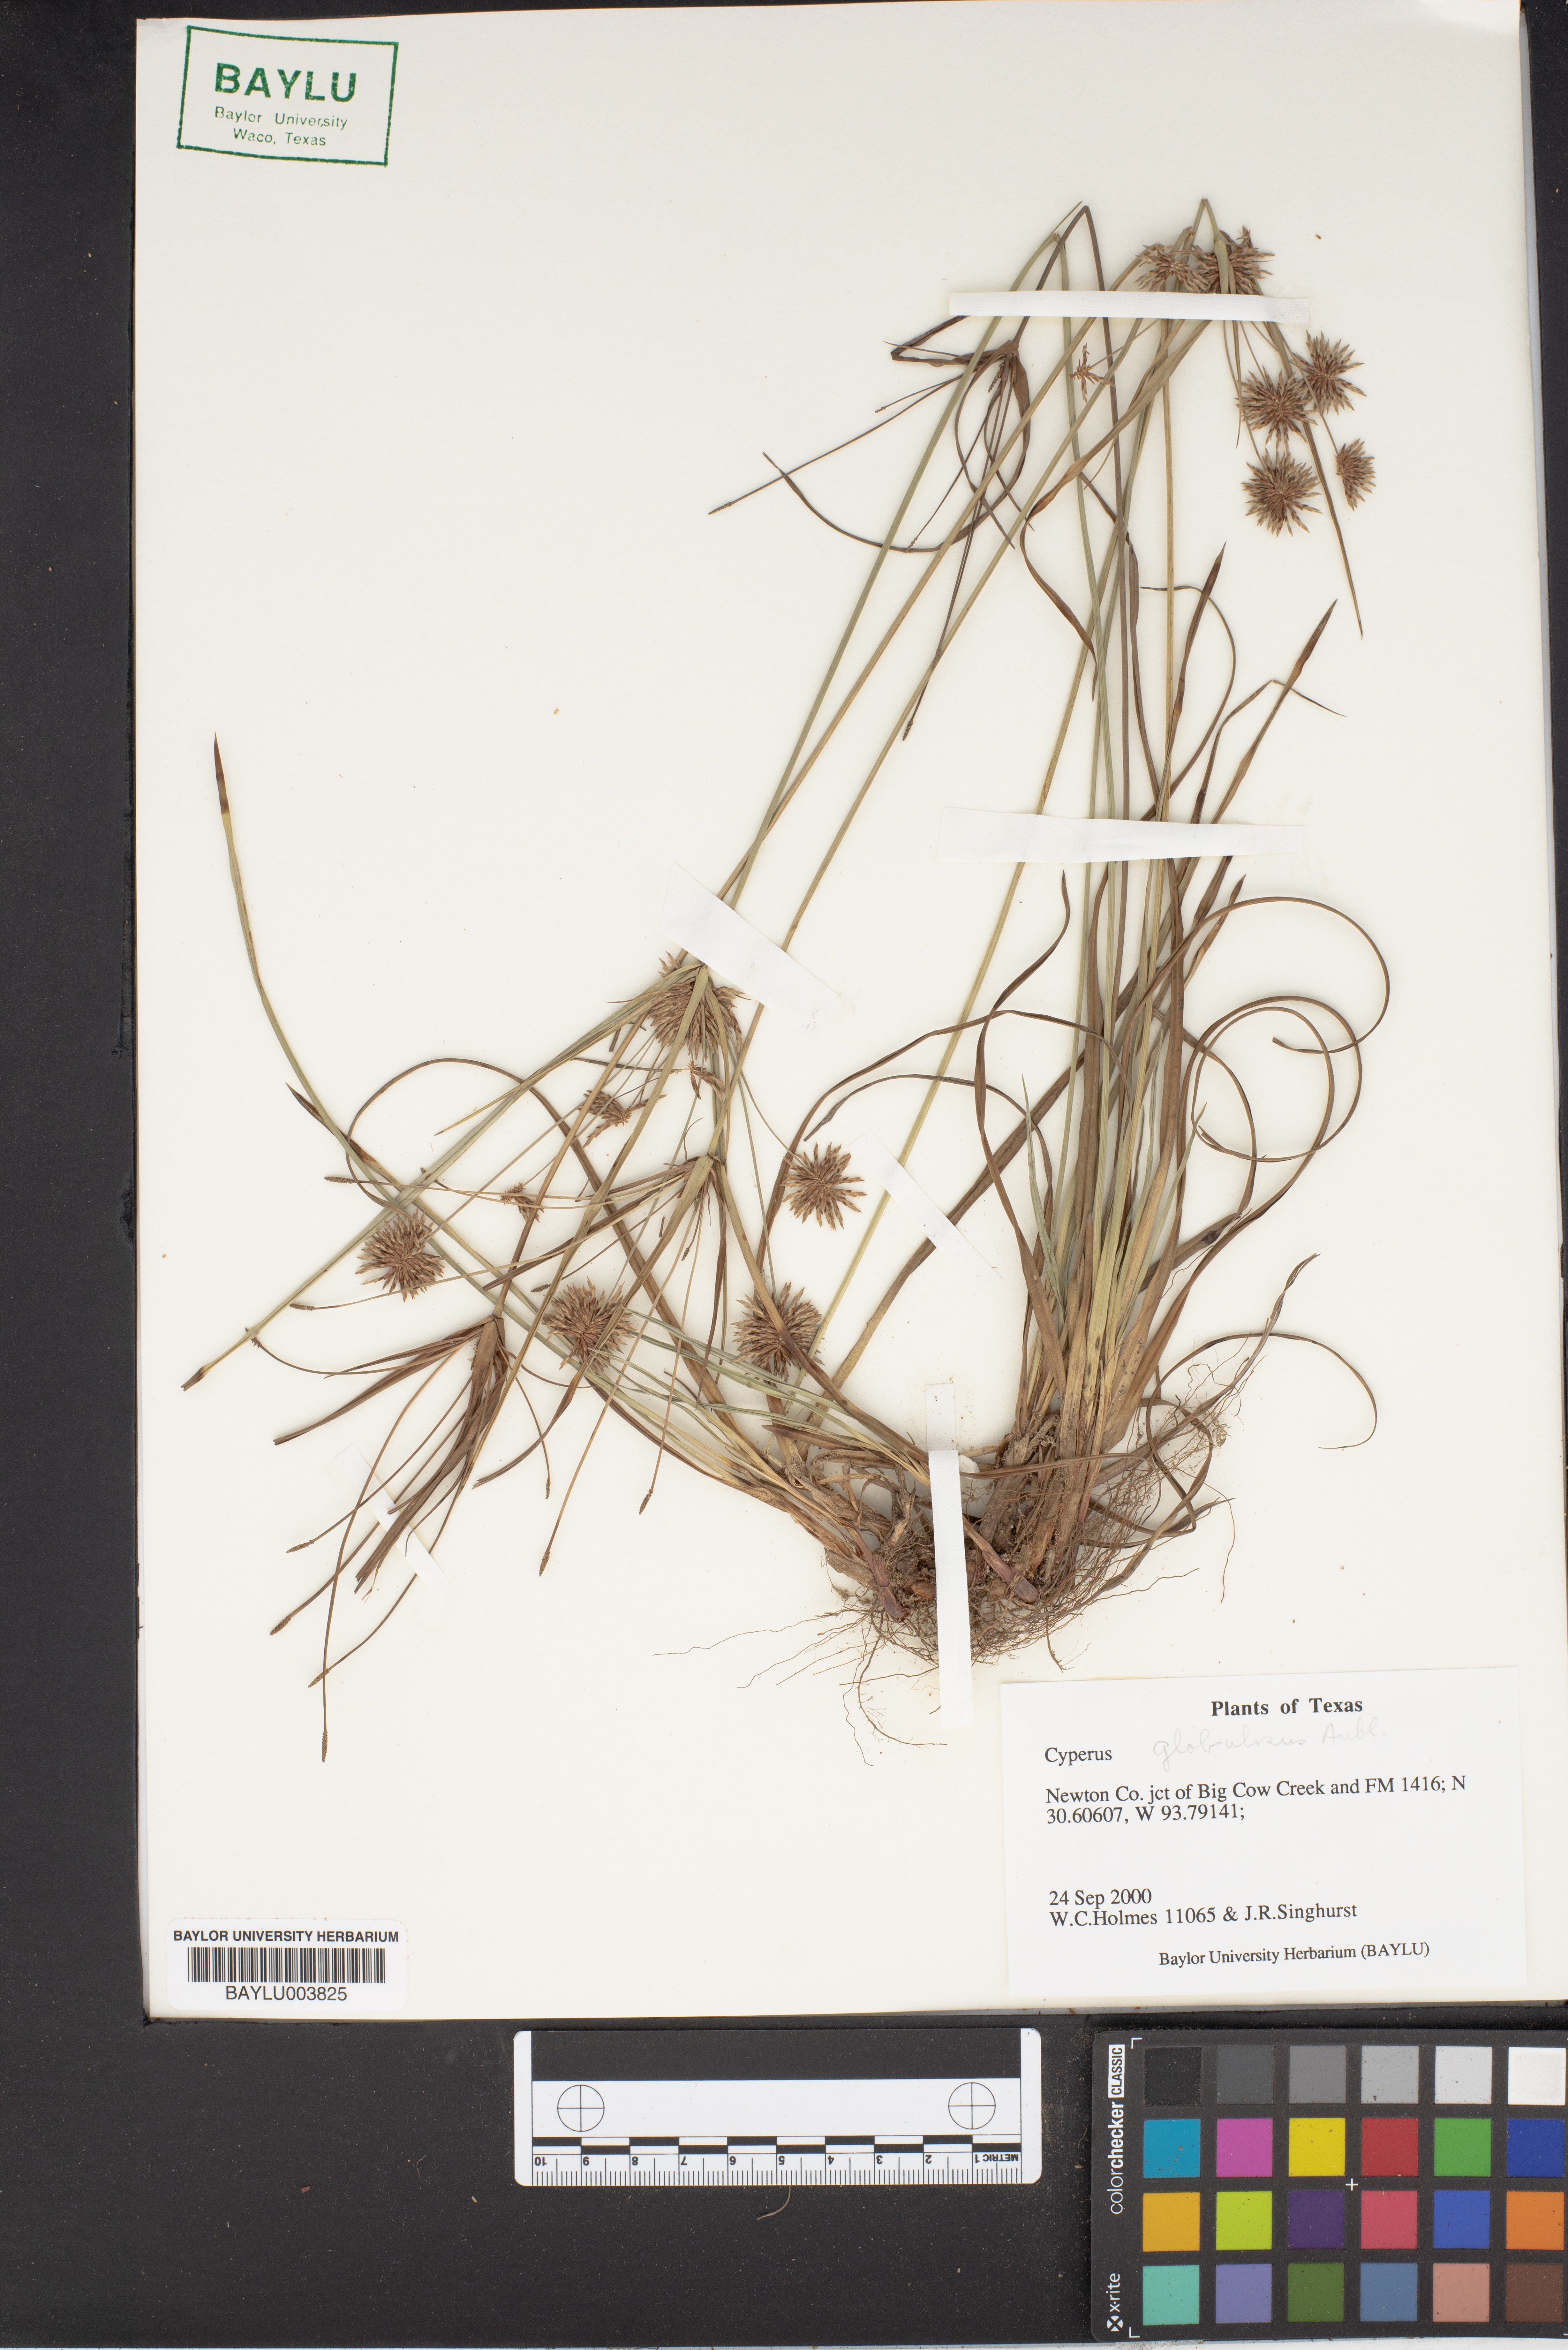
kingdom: Plantae
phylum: Tracheophyta
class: Liliopsida
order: Poales
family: Cyperaceae
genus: Cyperus
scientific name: Cyperus luzulae
